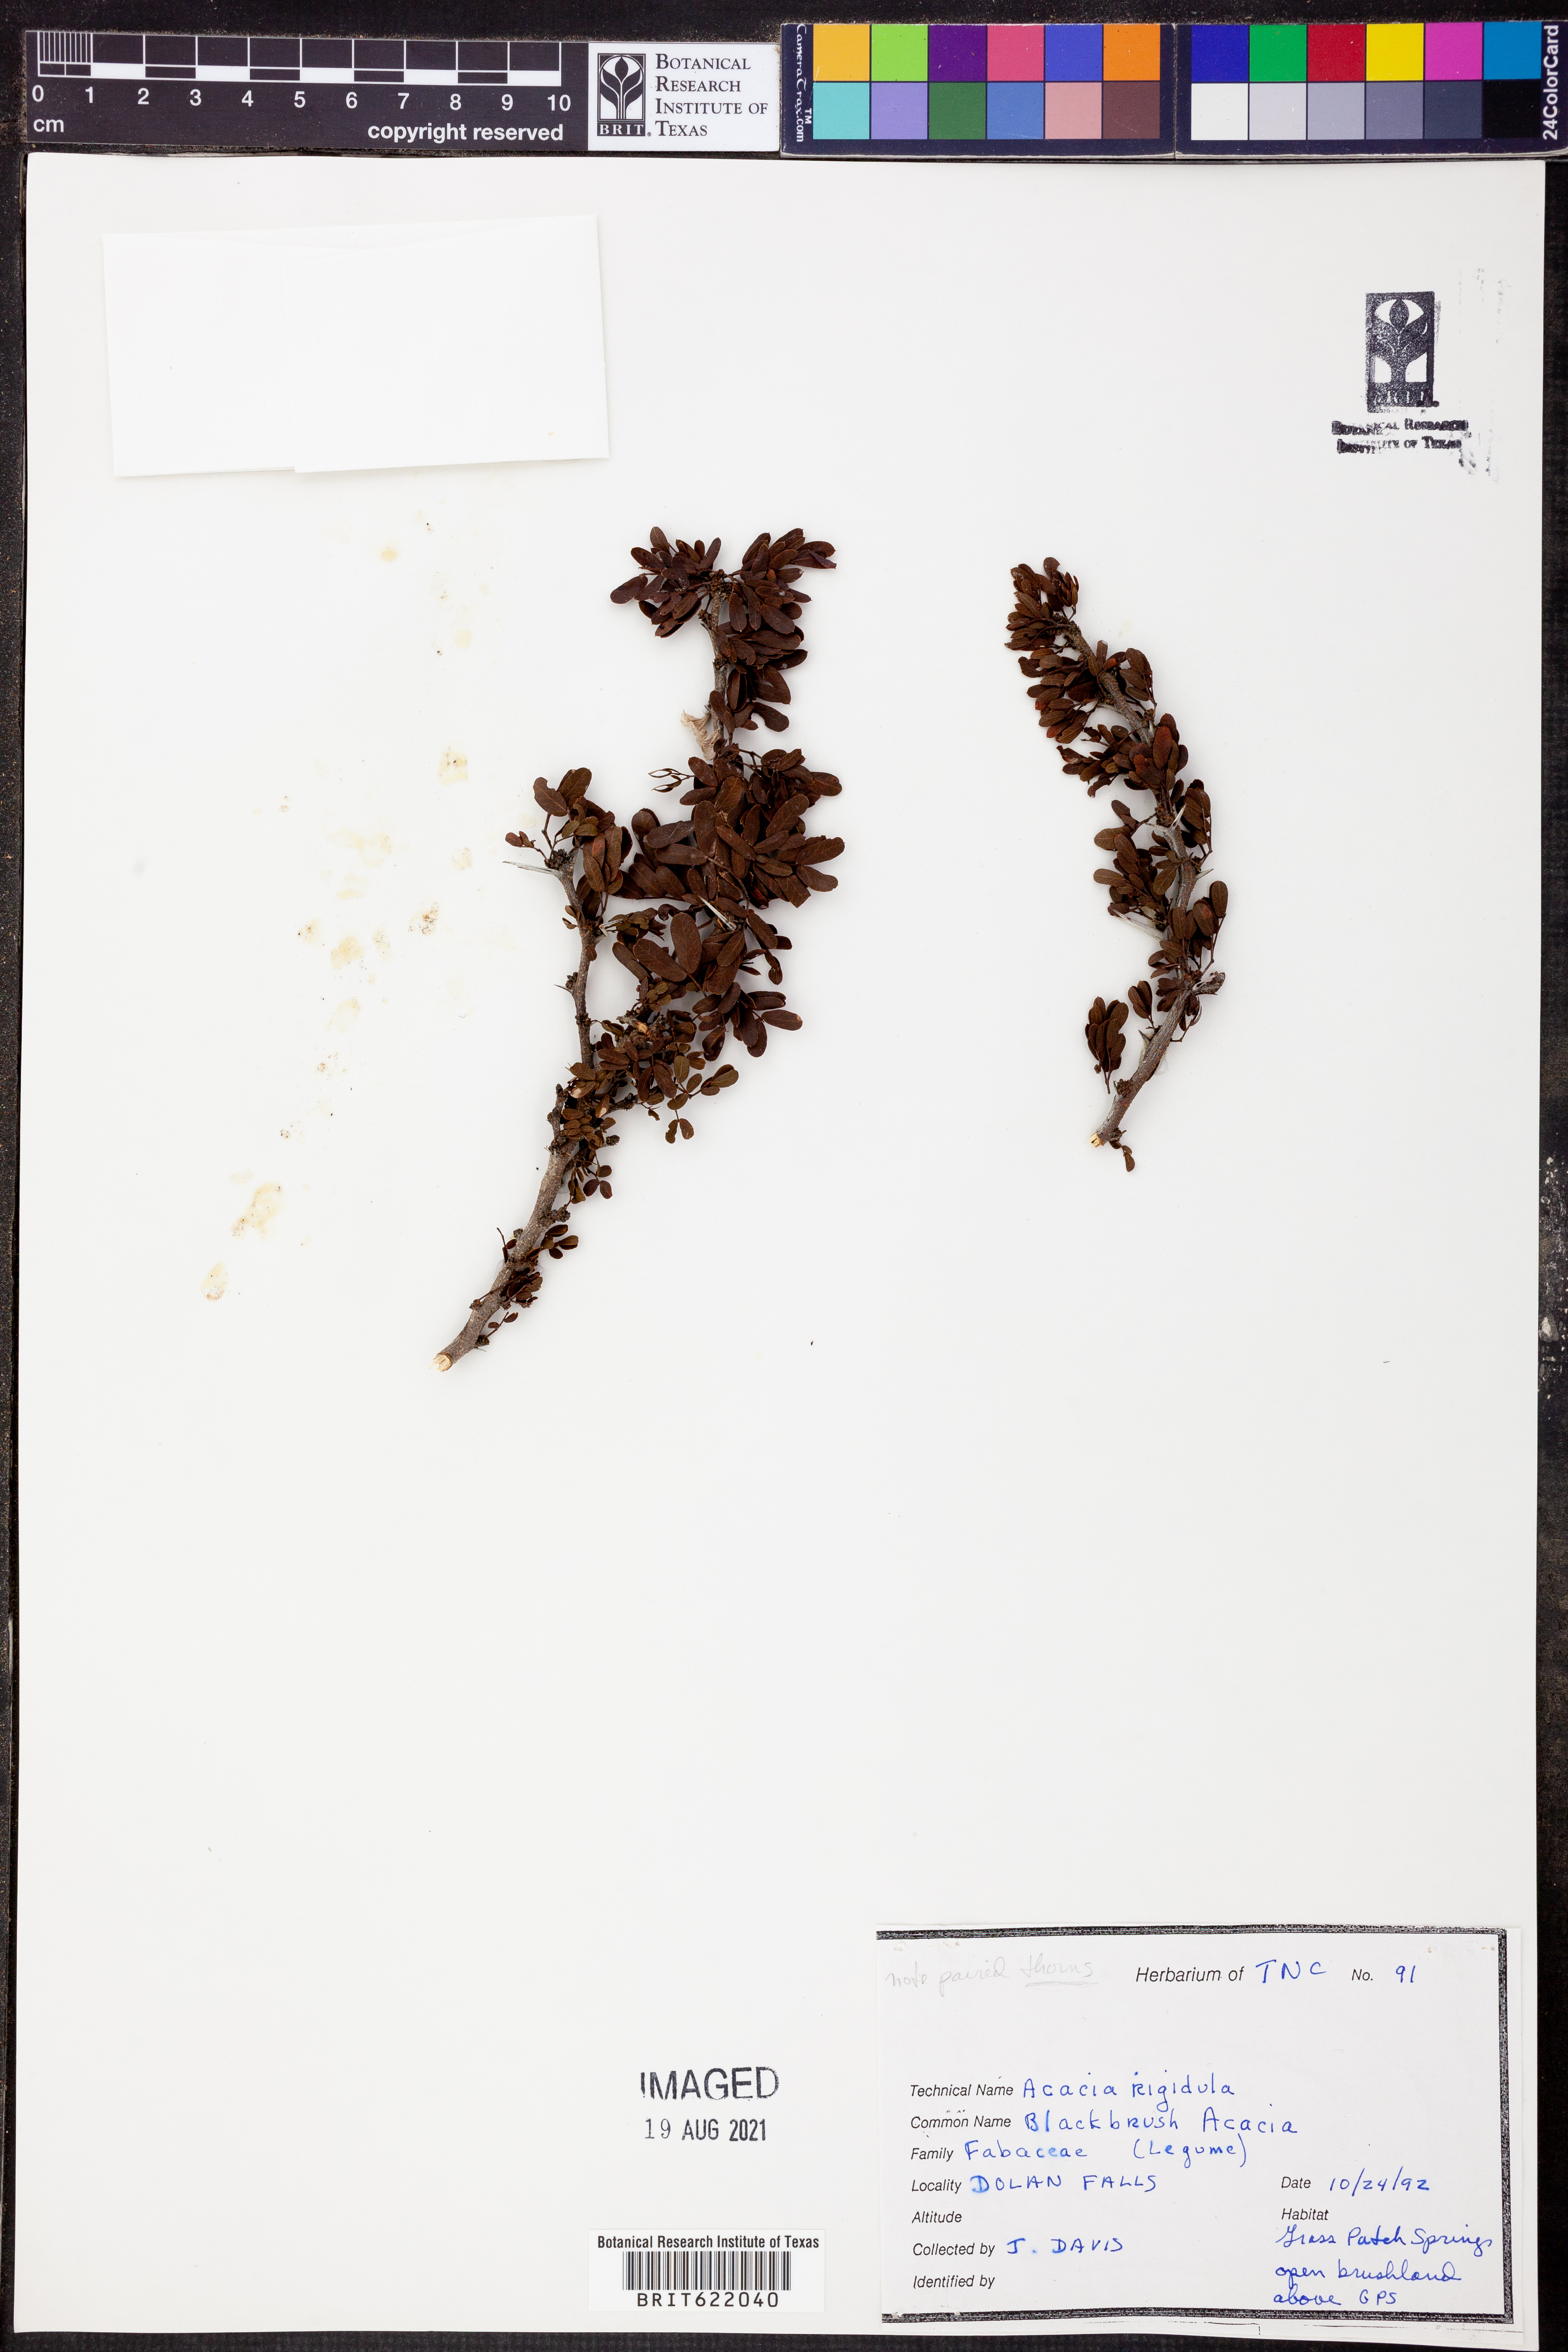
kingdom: Plantae
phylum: Tracheophyta
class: Magnoliopsida
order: Fabales
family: Fabaceae
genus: Vachellia
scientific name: Vachellia rigidula
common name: Blackbrush
